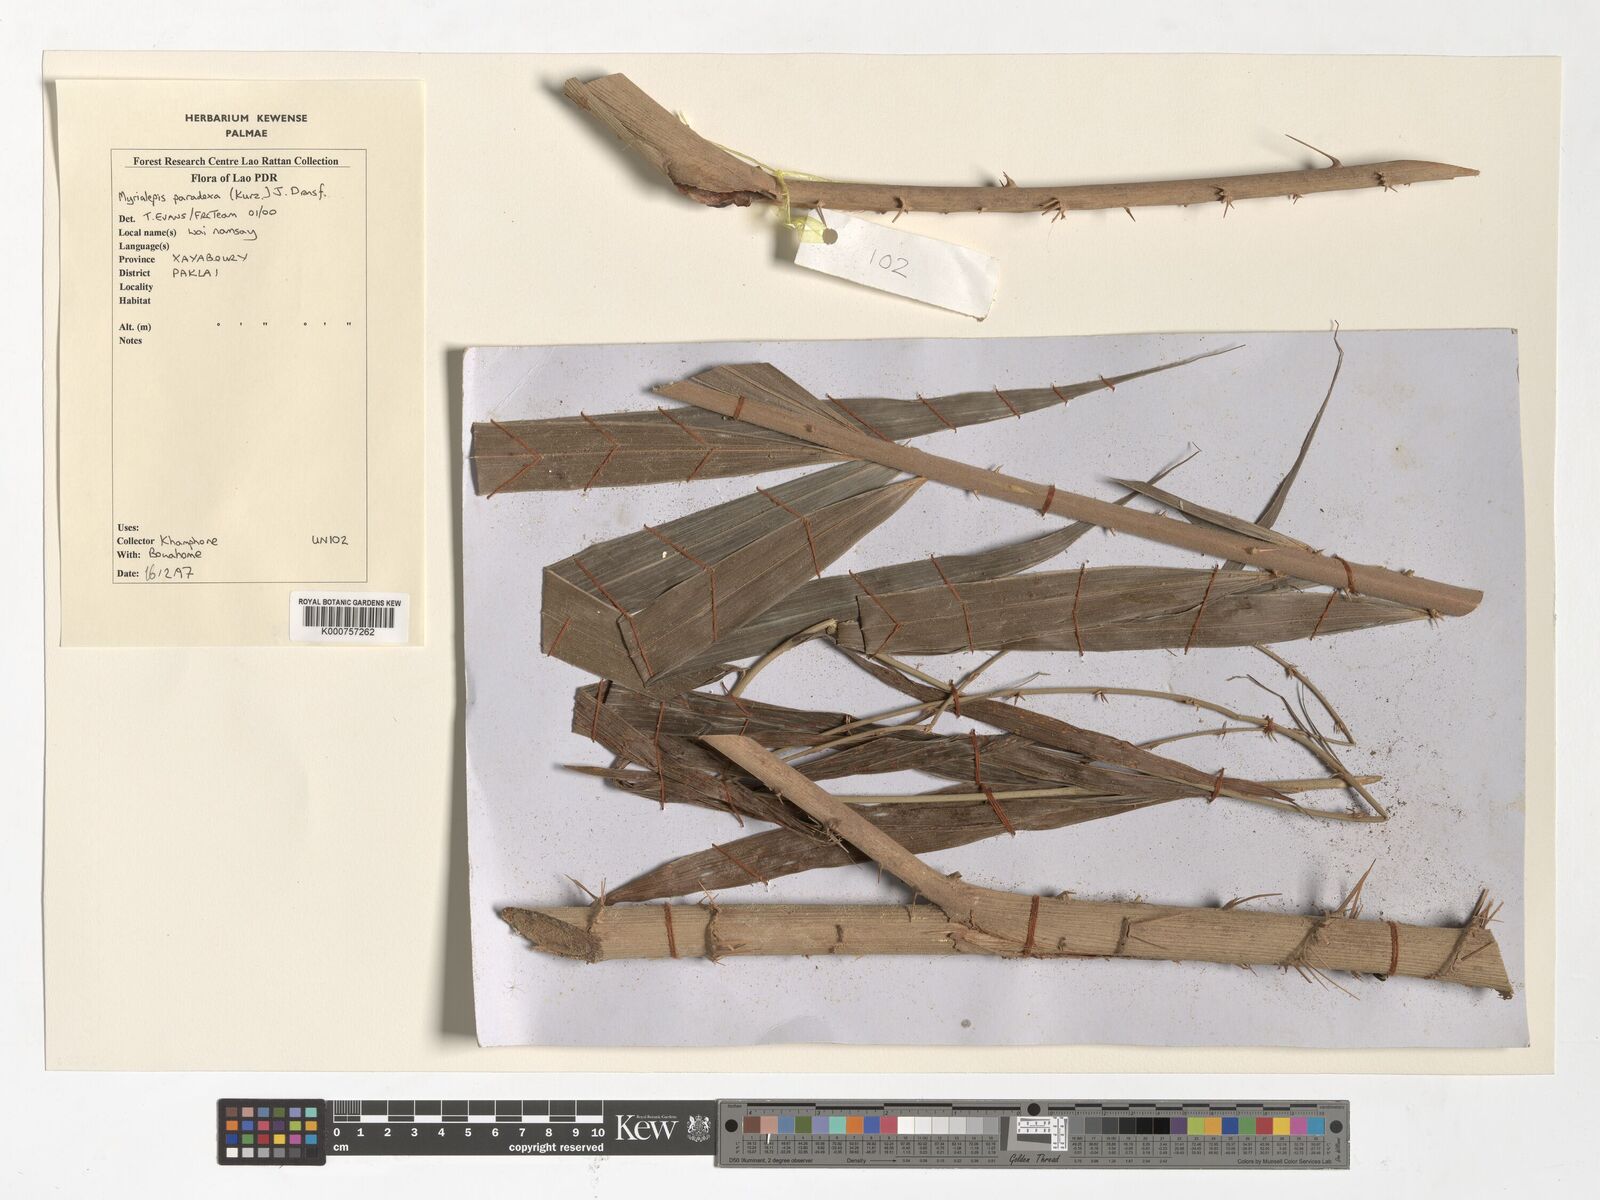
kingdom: Plantae
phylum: Tracheophyta
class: Liliopsida
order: Arecales
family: Arecaceae
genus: Myrialepis
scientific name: Myrialepis paradoxa
